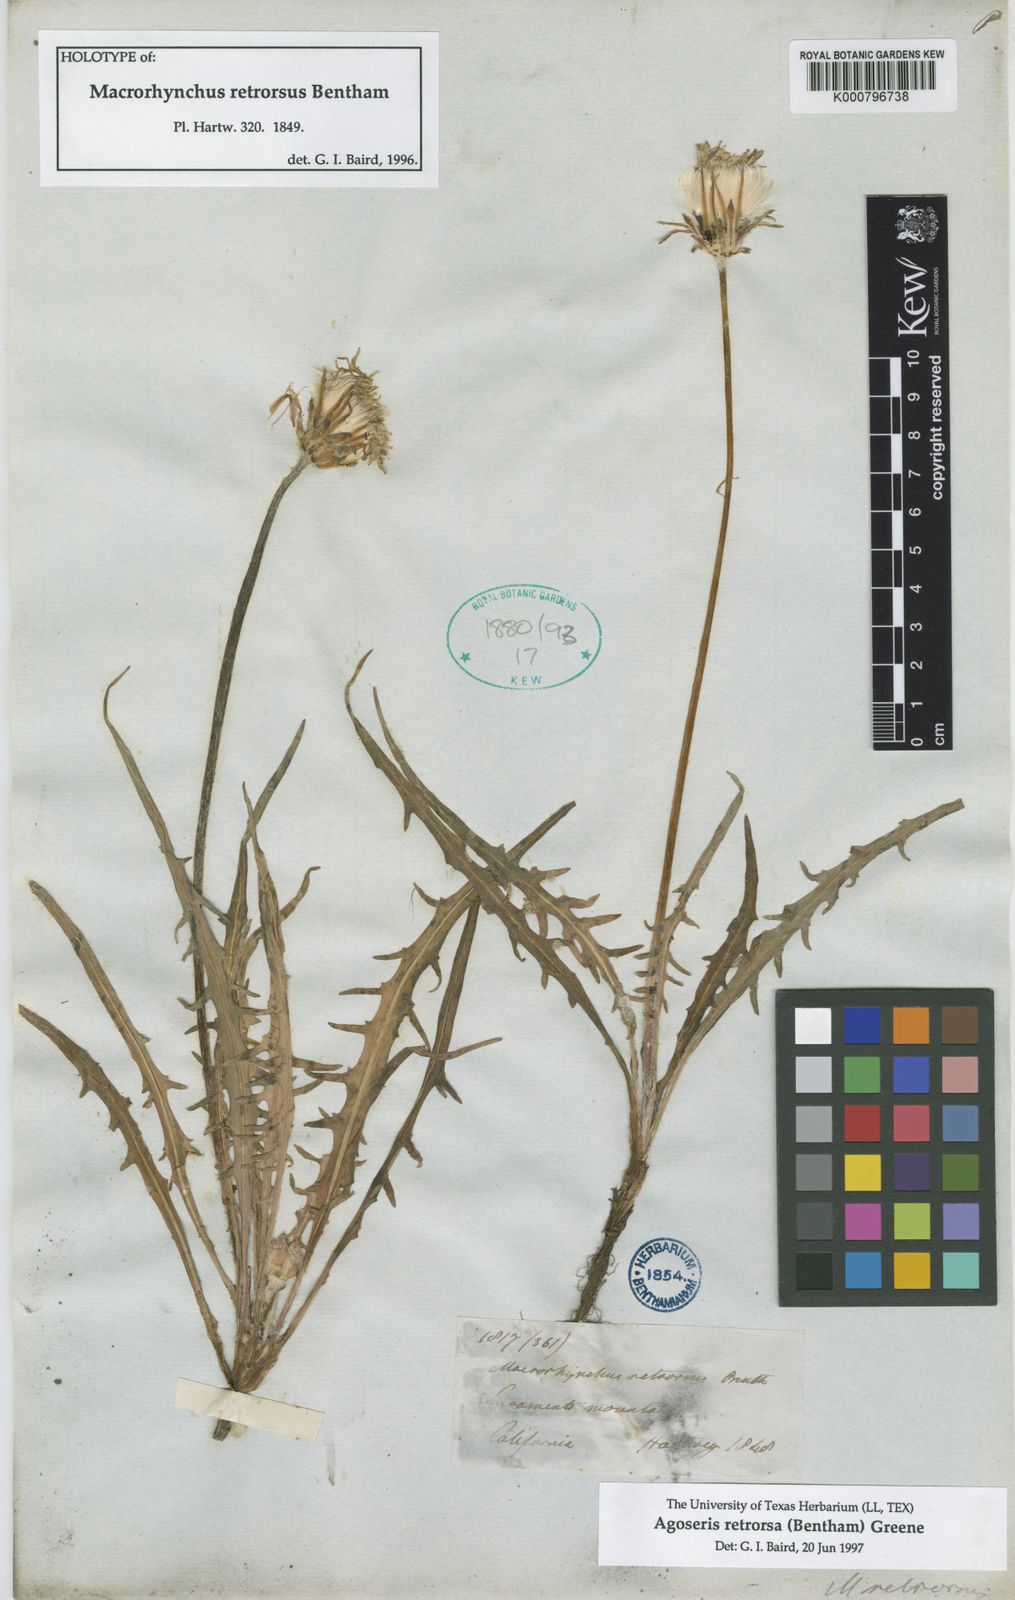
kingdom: Plantae
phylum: Tracheophyta
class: Magnoliopsida
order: Asterales
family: Asteraceae
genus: Agoseris
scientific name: Agoseris retrorsa
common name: Spearleaf agoseris
